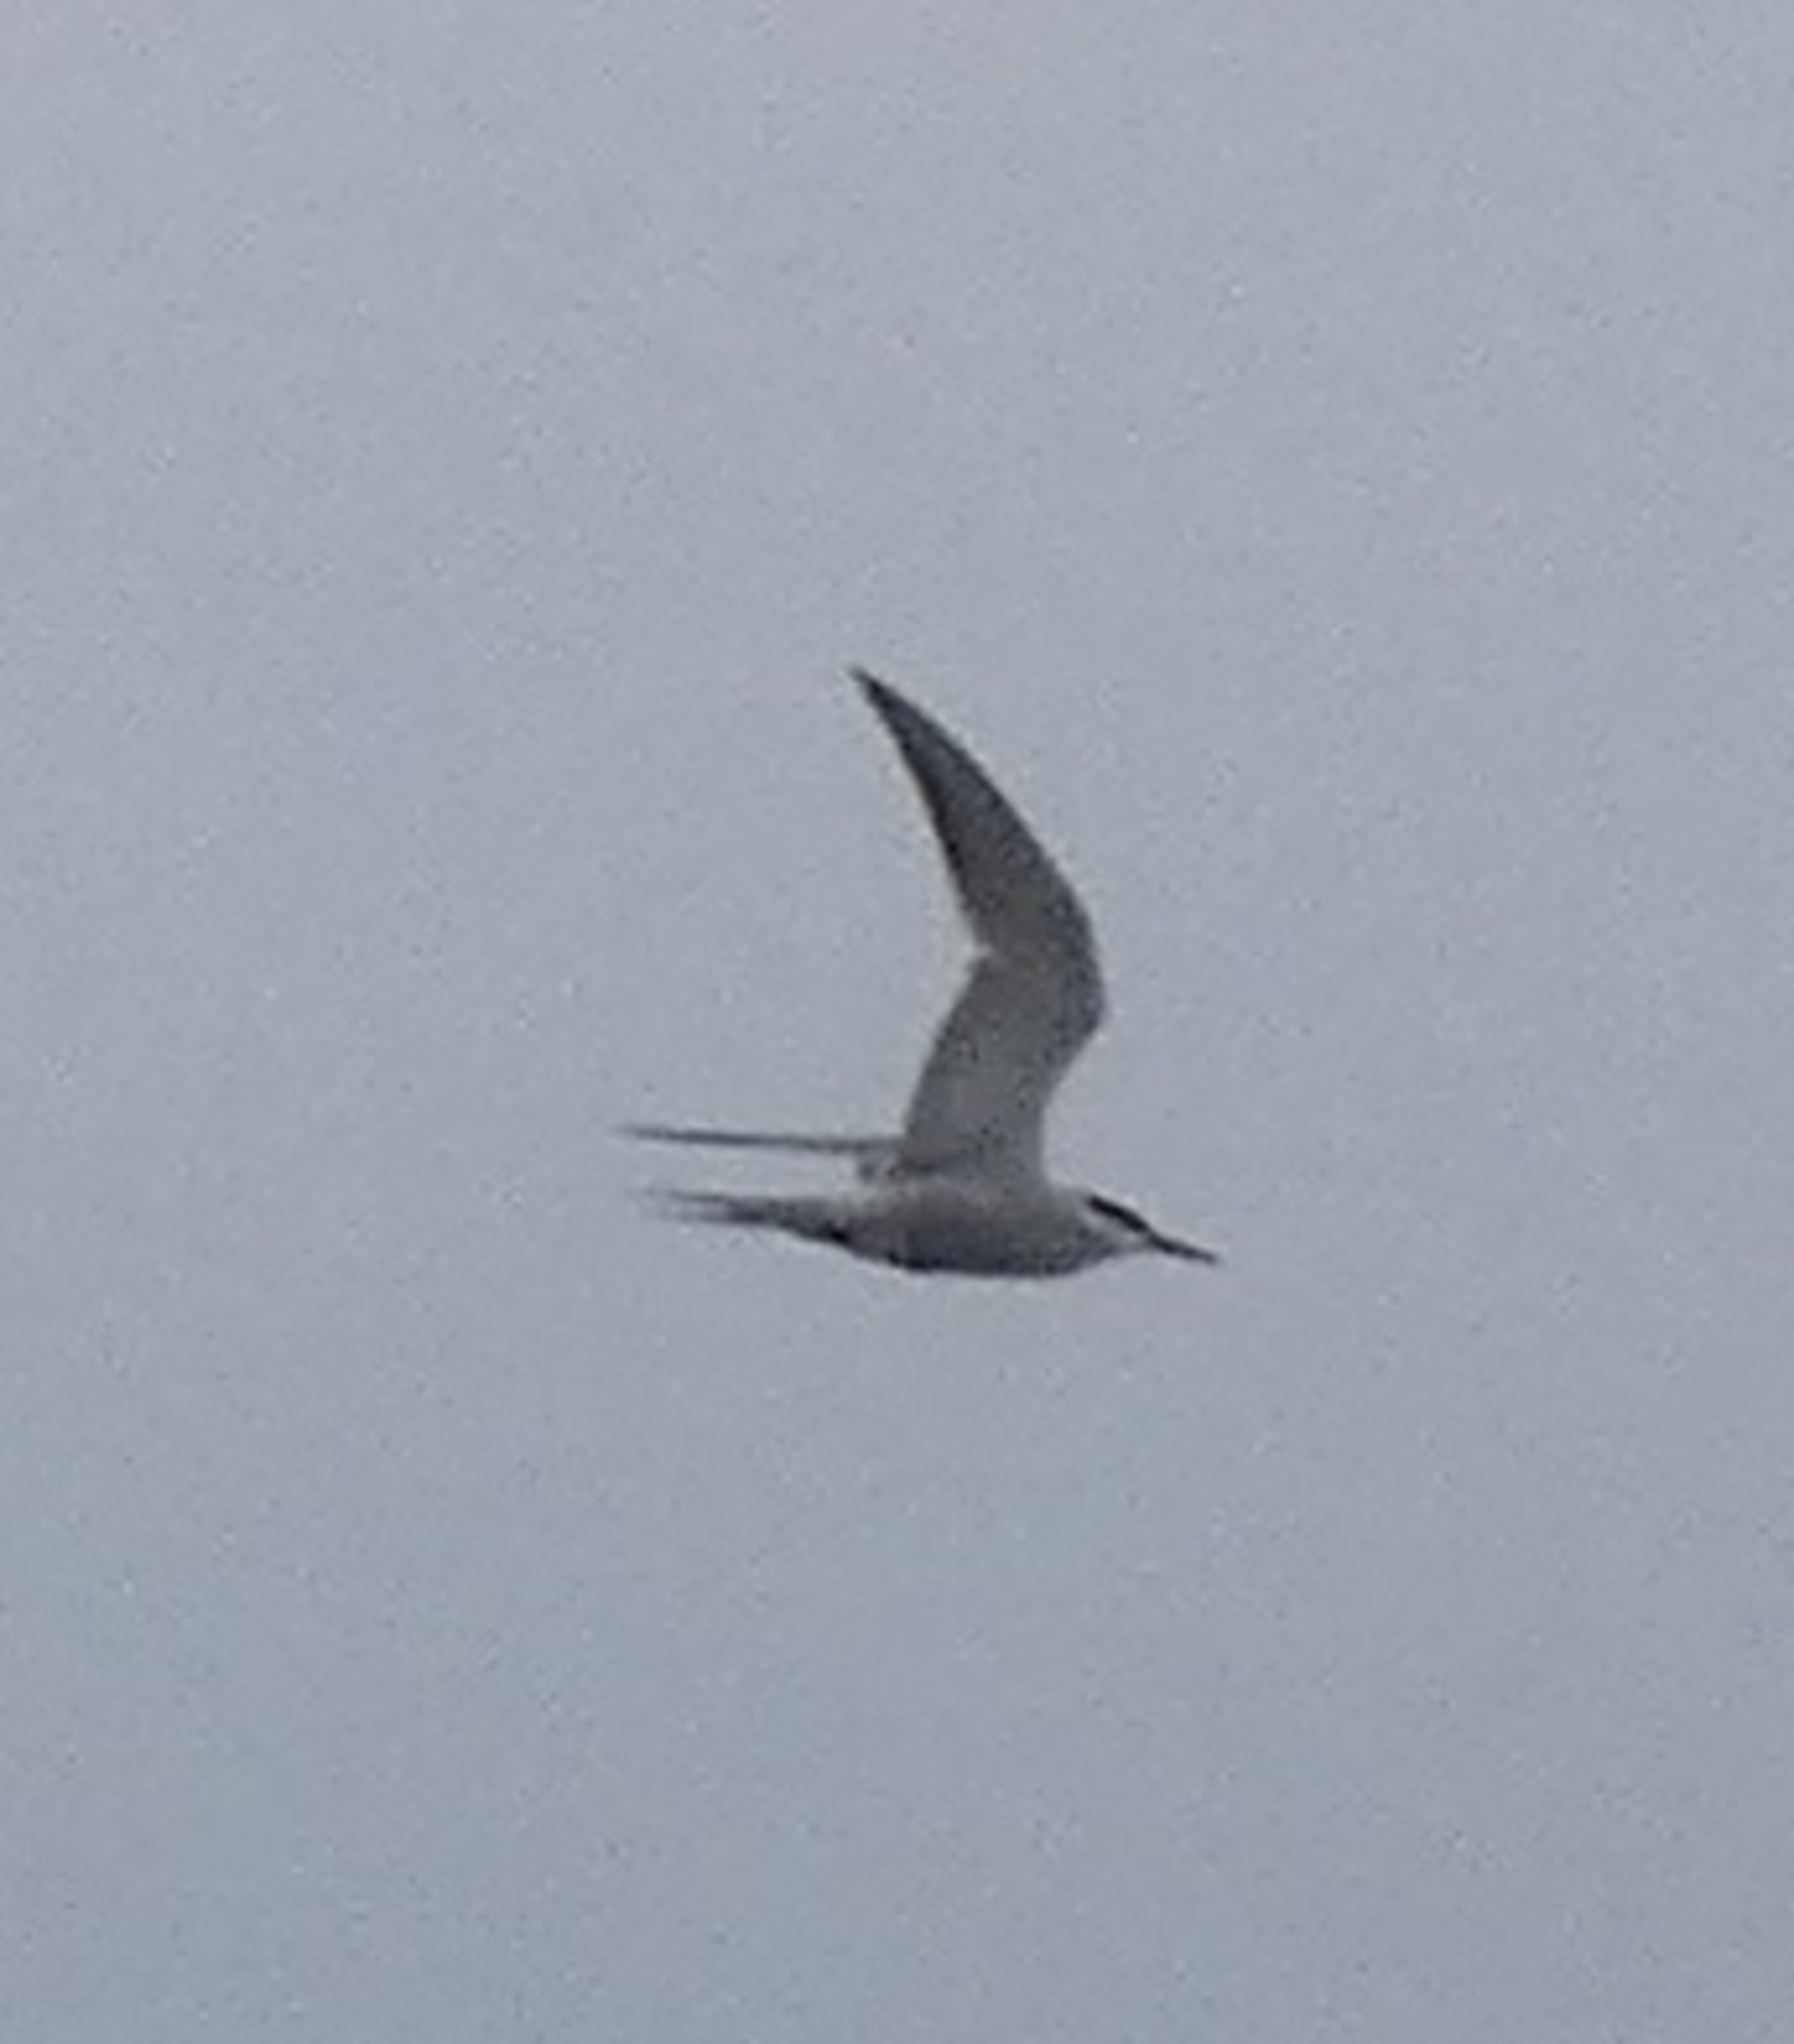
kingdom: Animalia
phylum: Chordata
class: Aves
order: Charadriiformes
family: Laridae
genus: Sterna
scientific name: Sterna paradisaea
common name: Havterne
